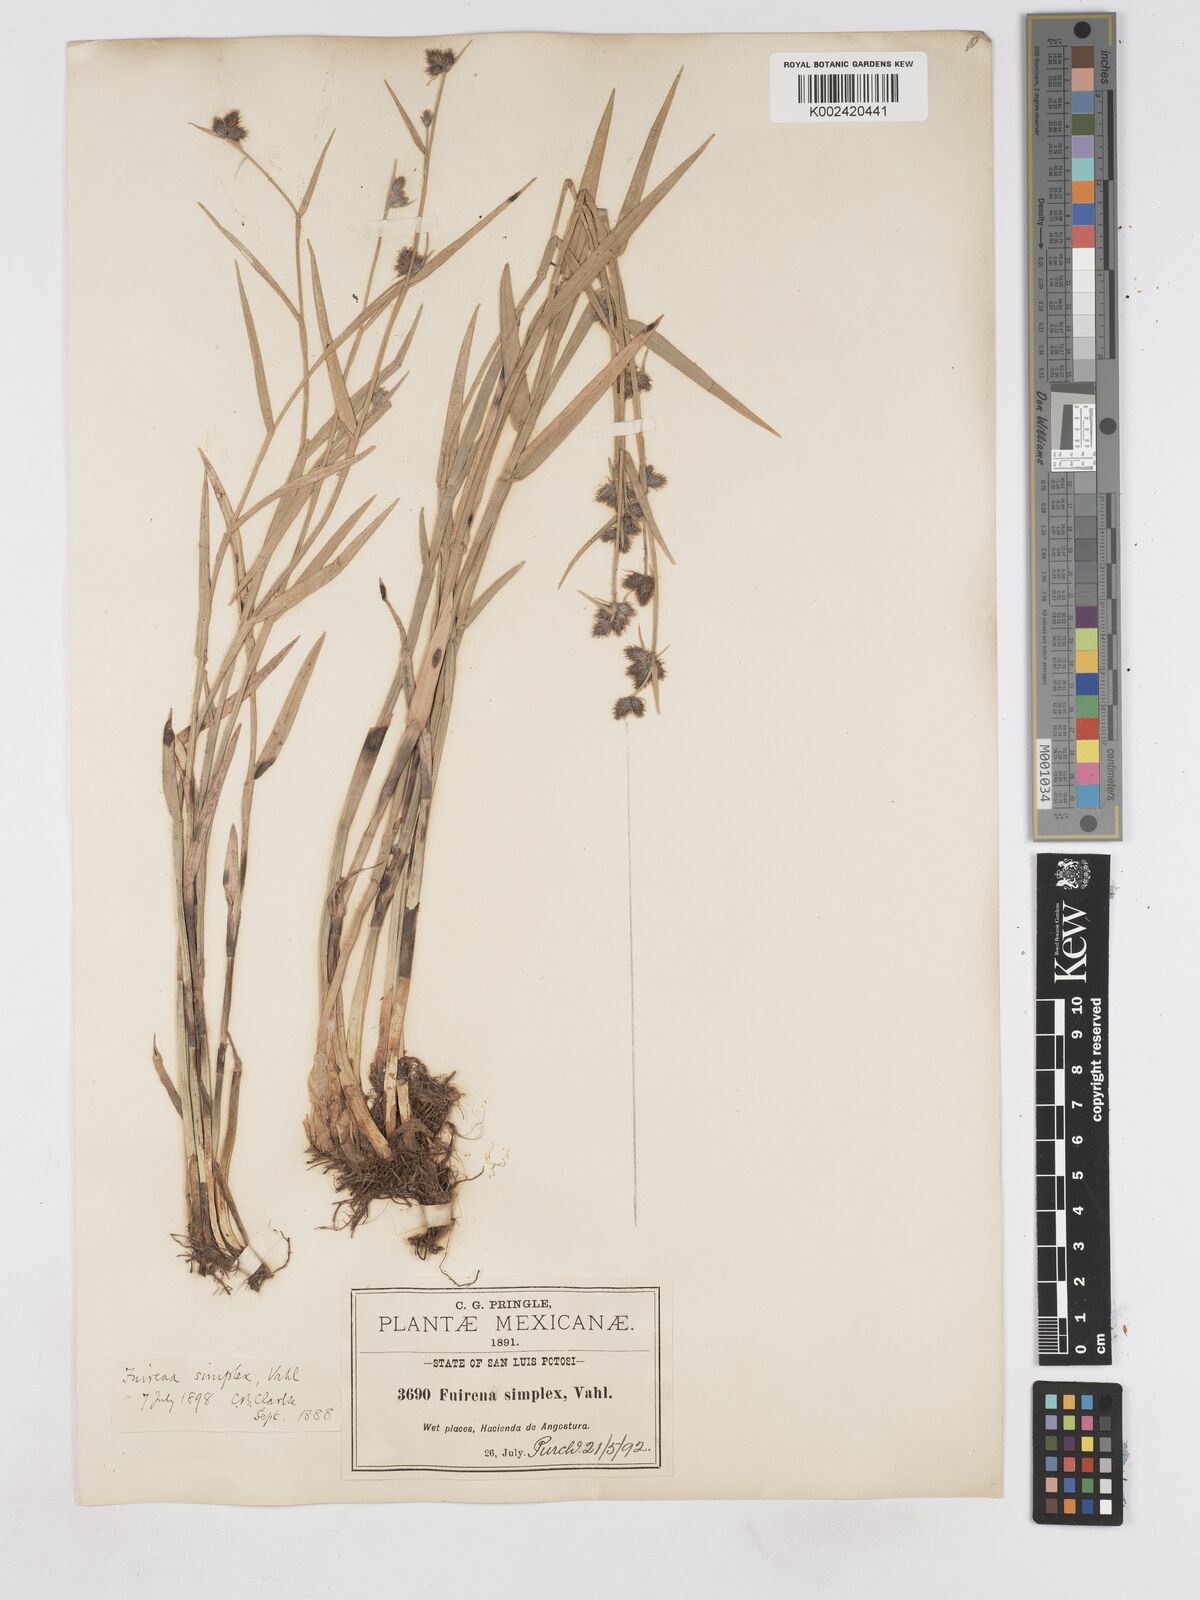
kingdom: Plantae
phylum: Tracheophyta
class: Liliopsida
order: Poales
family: Cyperaceae
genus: Fuirena
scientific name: Fuirena simplex
